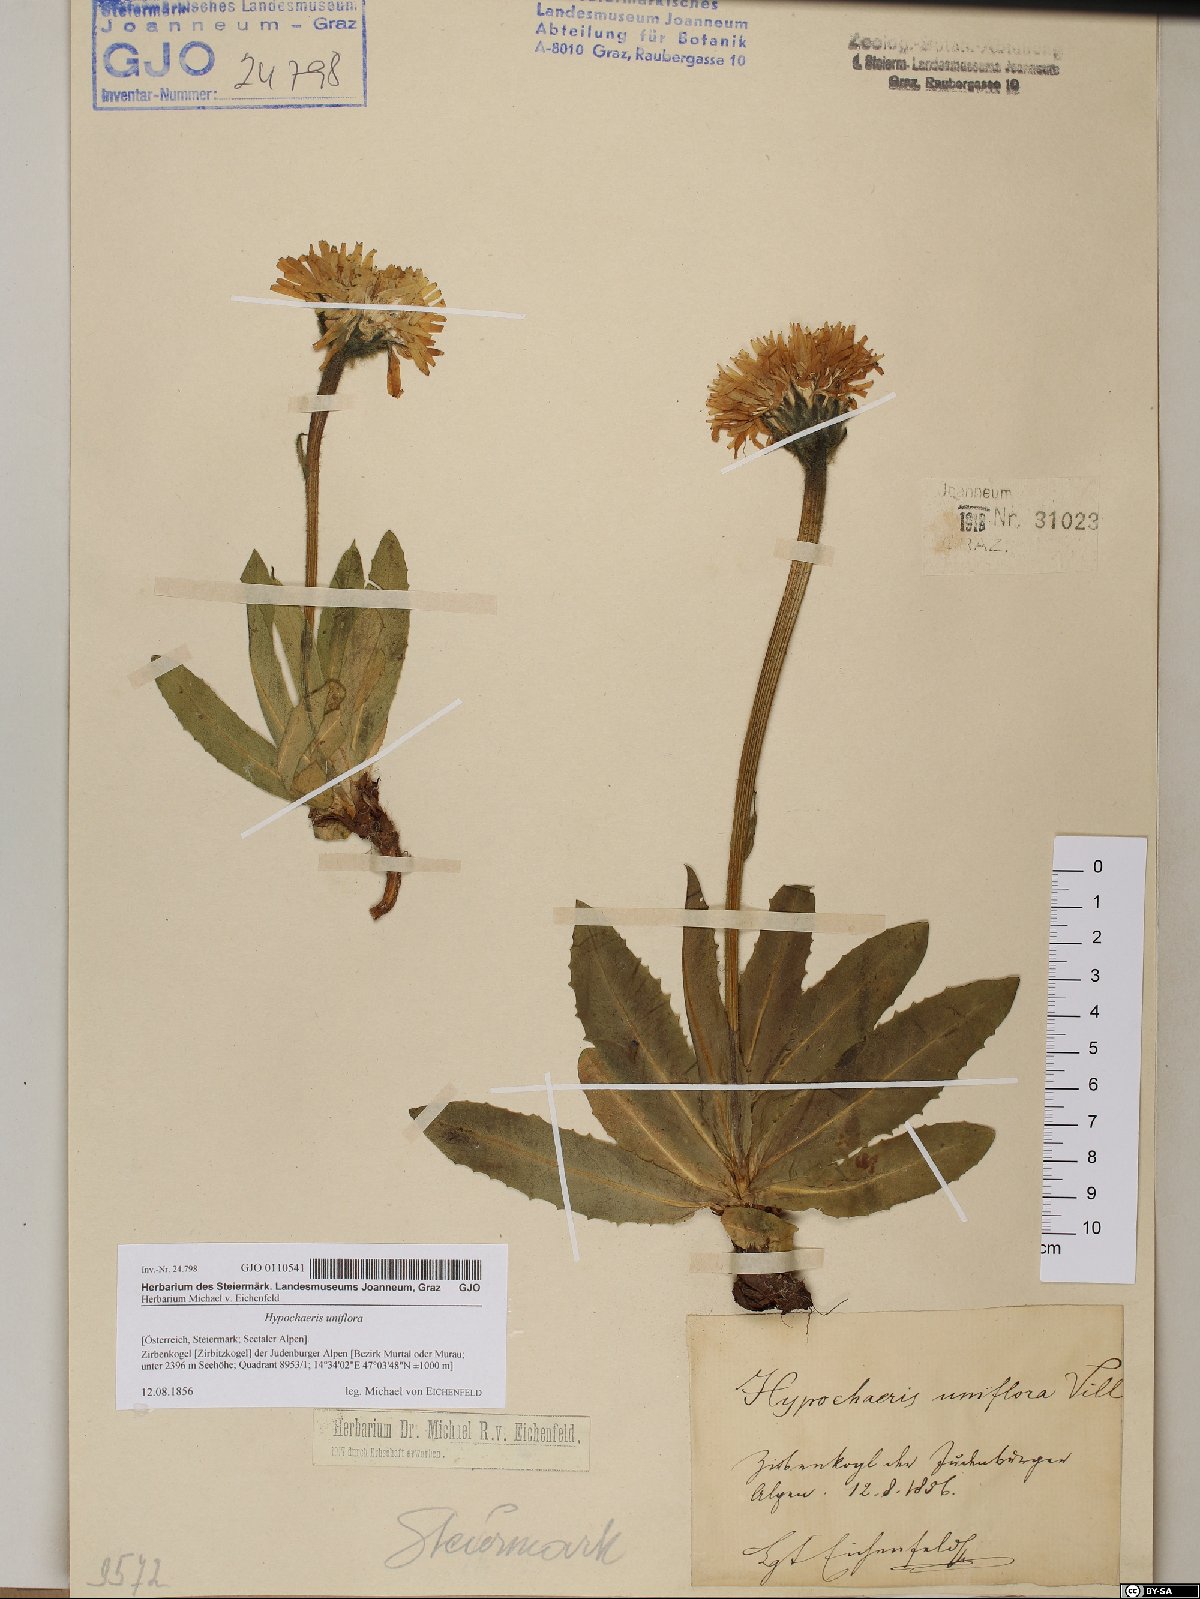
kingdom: Plantae
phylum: Tracheophyta
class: Magnoliopsida
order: Asterales
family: Asteraceae
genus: Trommsdorffia
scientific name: Trommsdorffia uniflora
